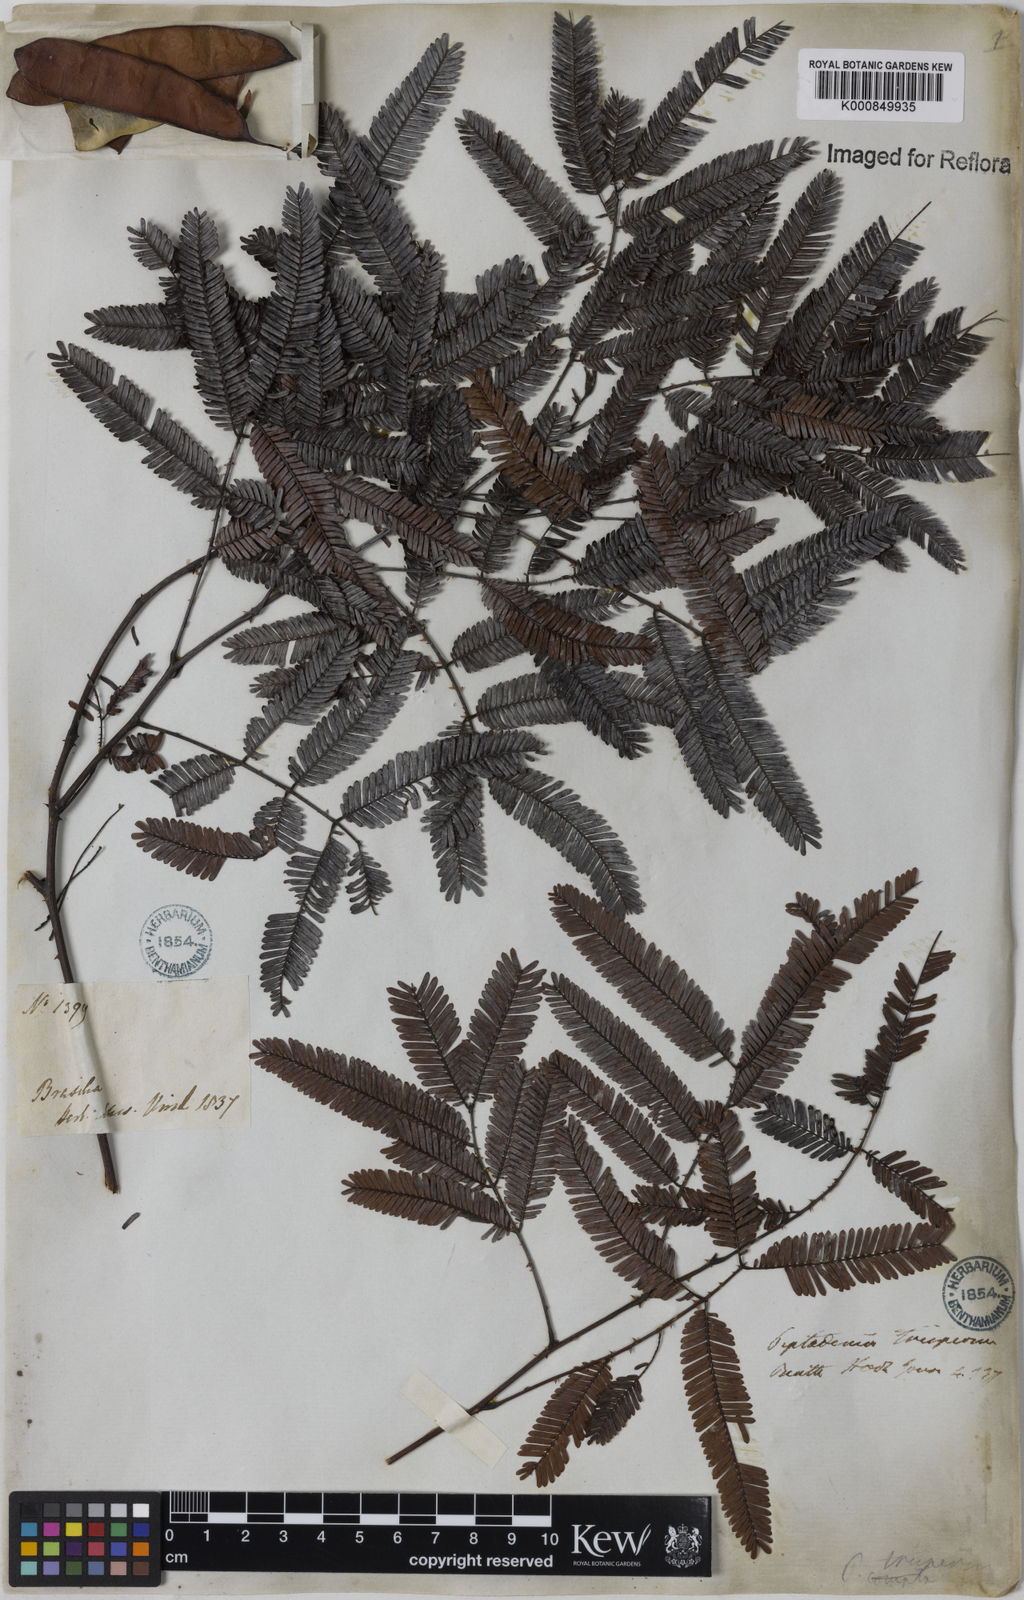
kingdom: Plantae
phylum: Tracheophyta
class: Magnoliopsida
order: Fabales
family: Fabaceae
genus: Piptadenia
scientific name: Piptadenia trisperma
